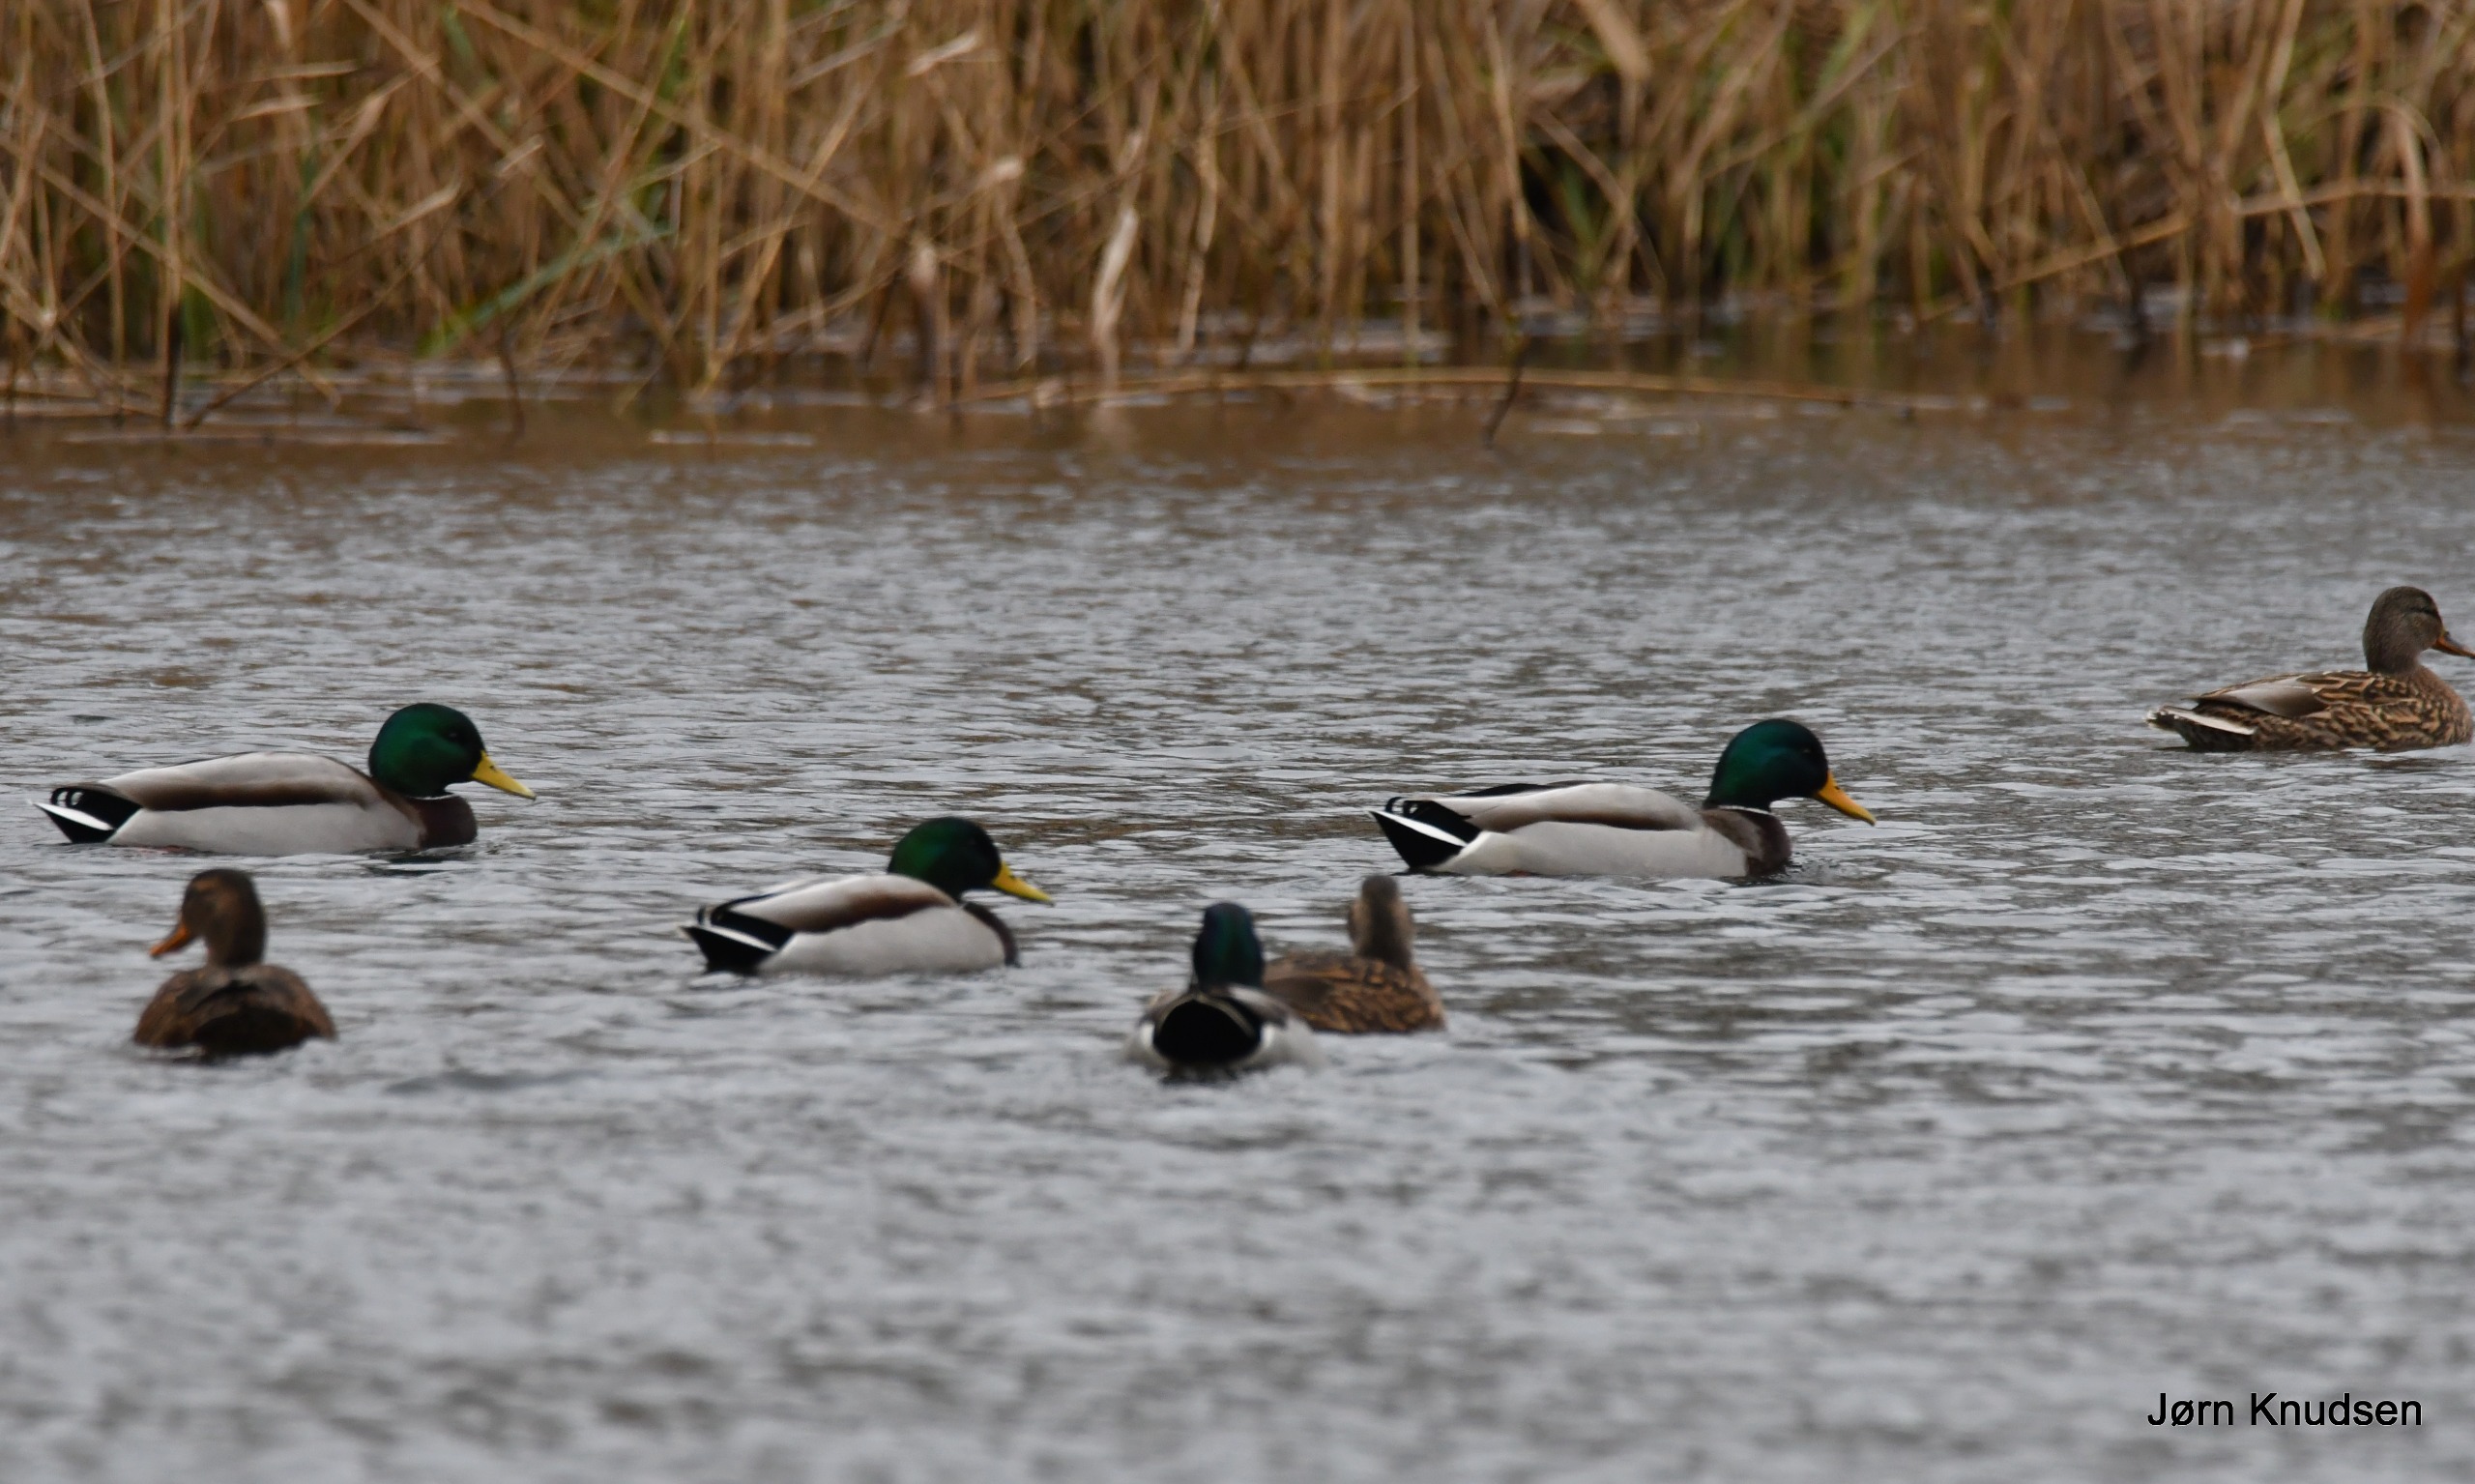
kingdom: Animalia
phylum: Chordata
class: Aves
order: Anseriformes
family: Anatidae
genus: Anas
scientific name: Anas platyrhynchos
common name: Gråand
